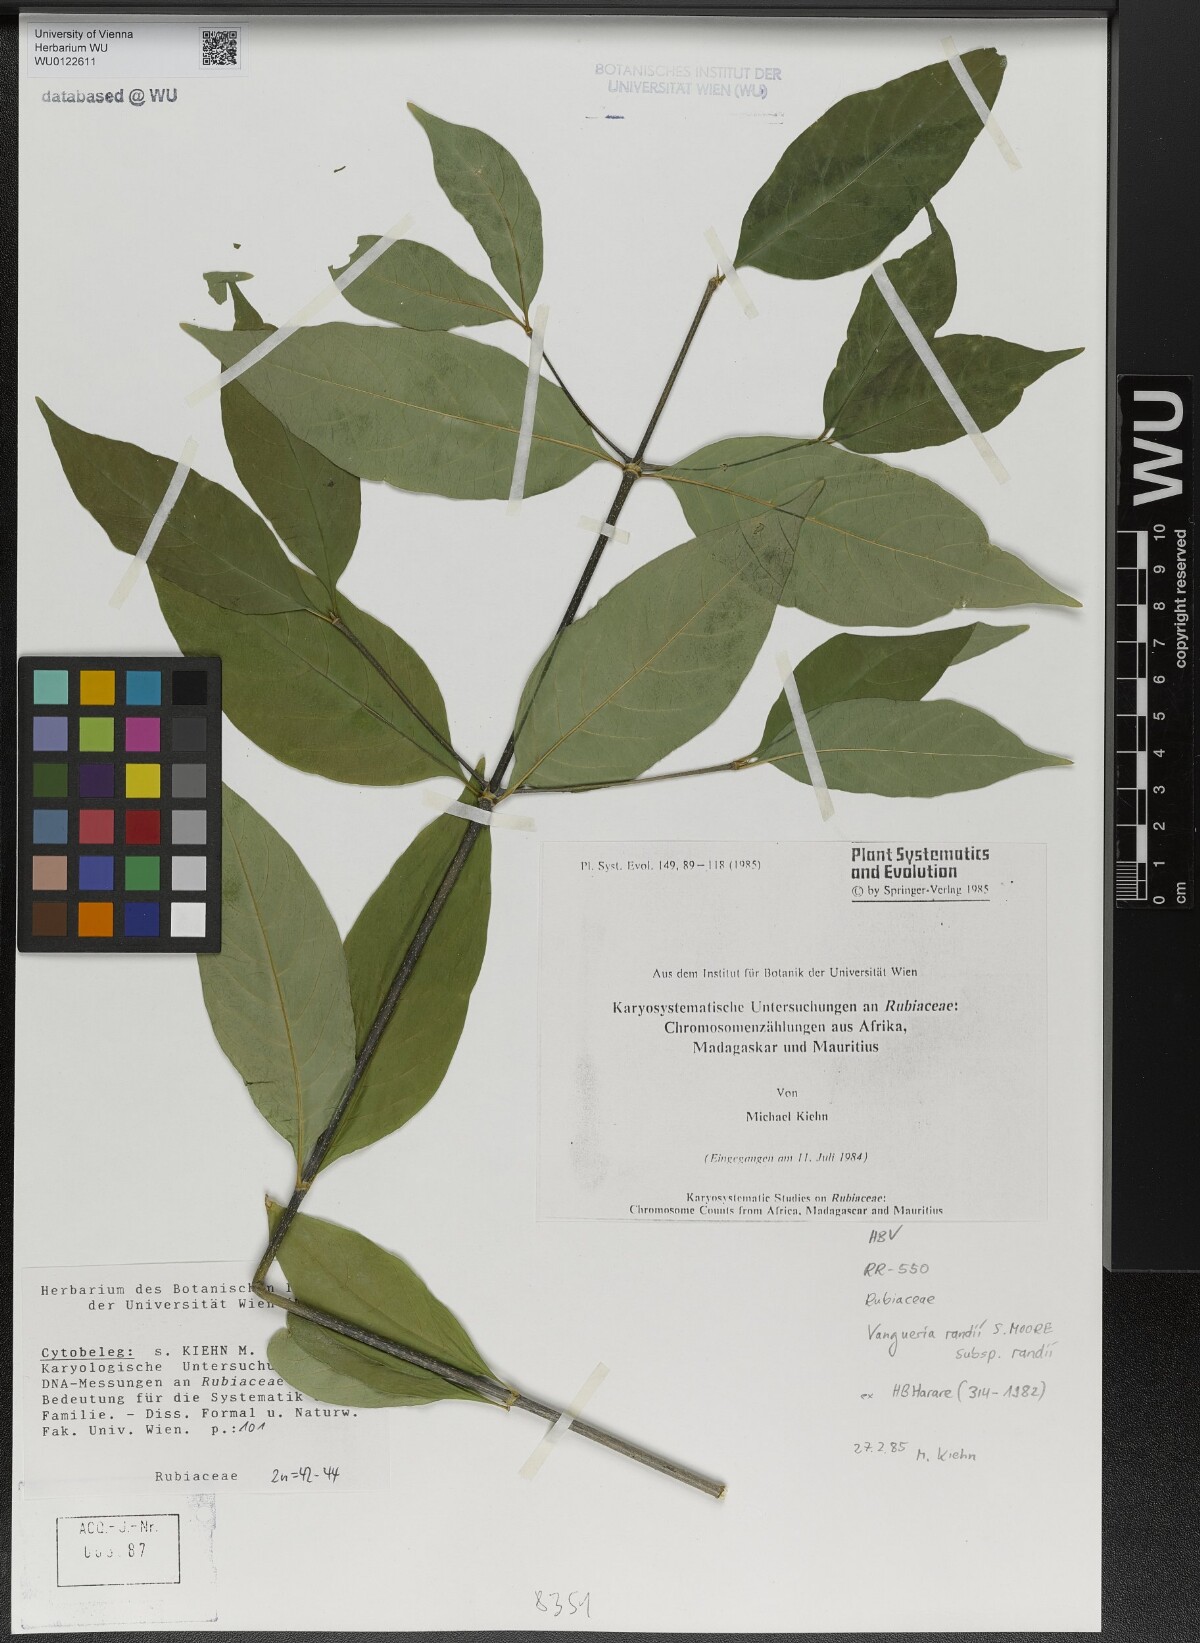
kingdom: Plantae
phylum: Tracheophyta
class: Magnoliopsida
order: Gentianales
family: Rubiaceae
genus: Vangueria
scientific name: Vangueria randii
